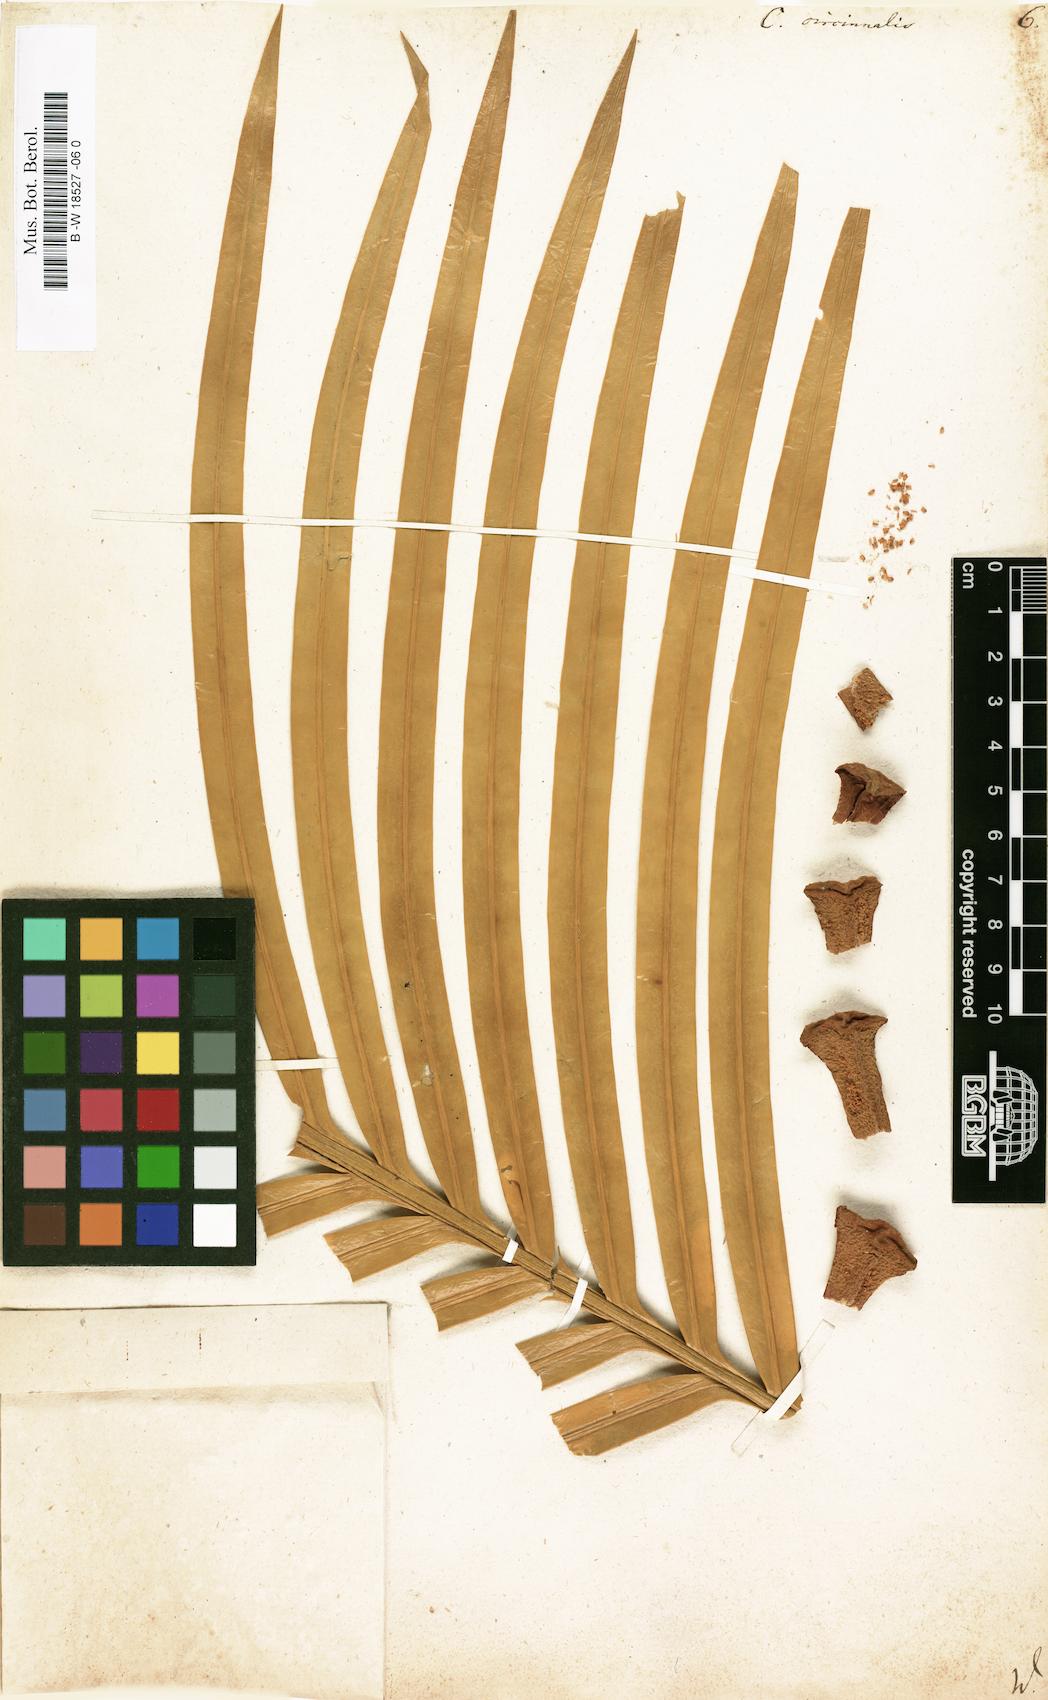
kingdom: Plantae
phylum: Tracheophyta
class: Cycadopsida
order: Cycadales
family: Cycadaceae
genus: Cycas
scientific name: Cycas circinalis
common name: Queen sago
